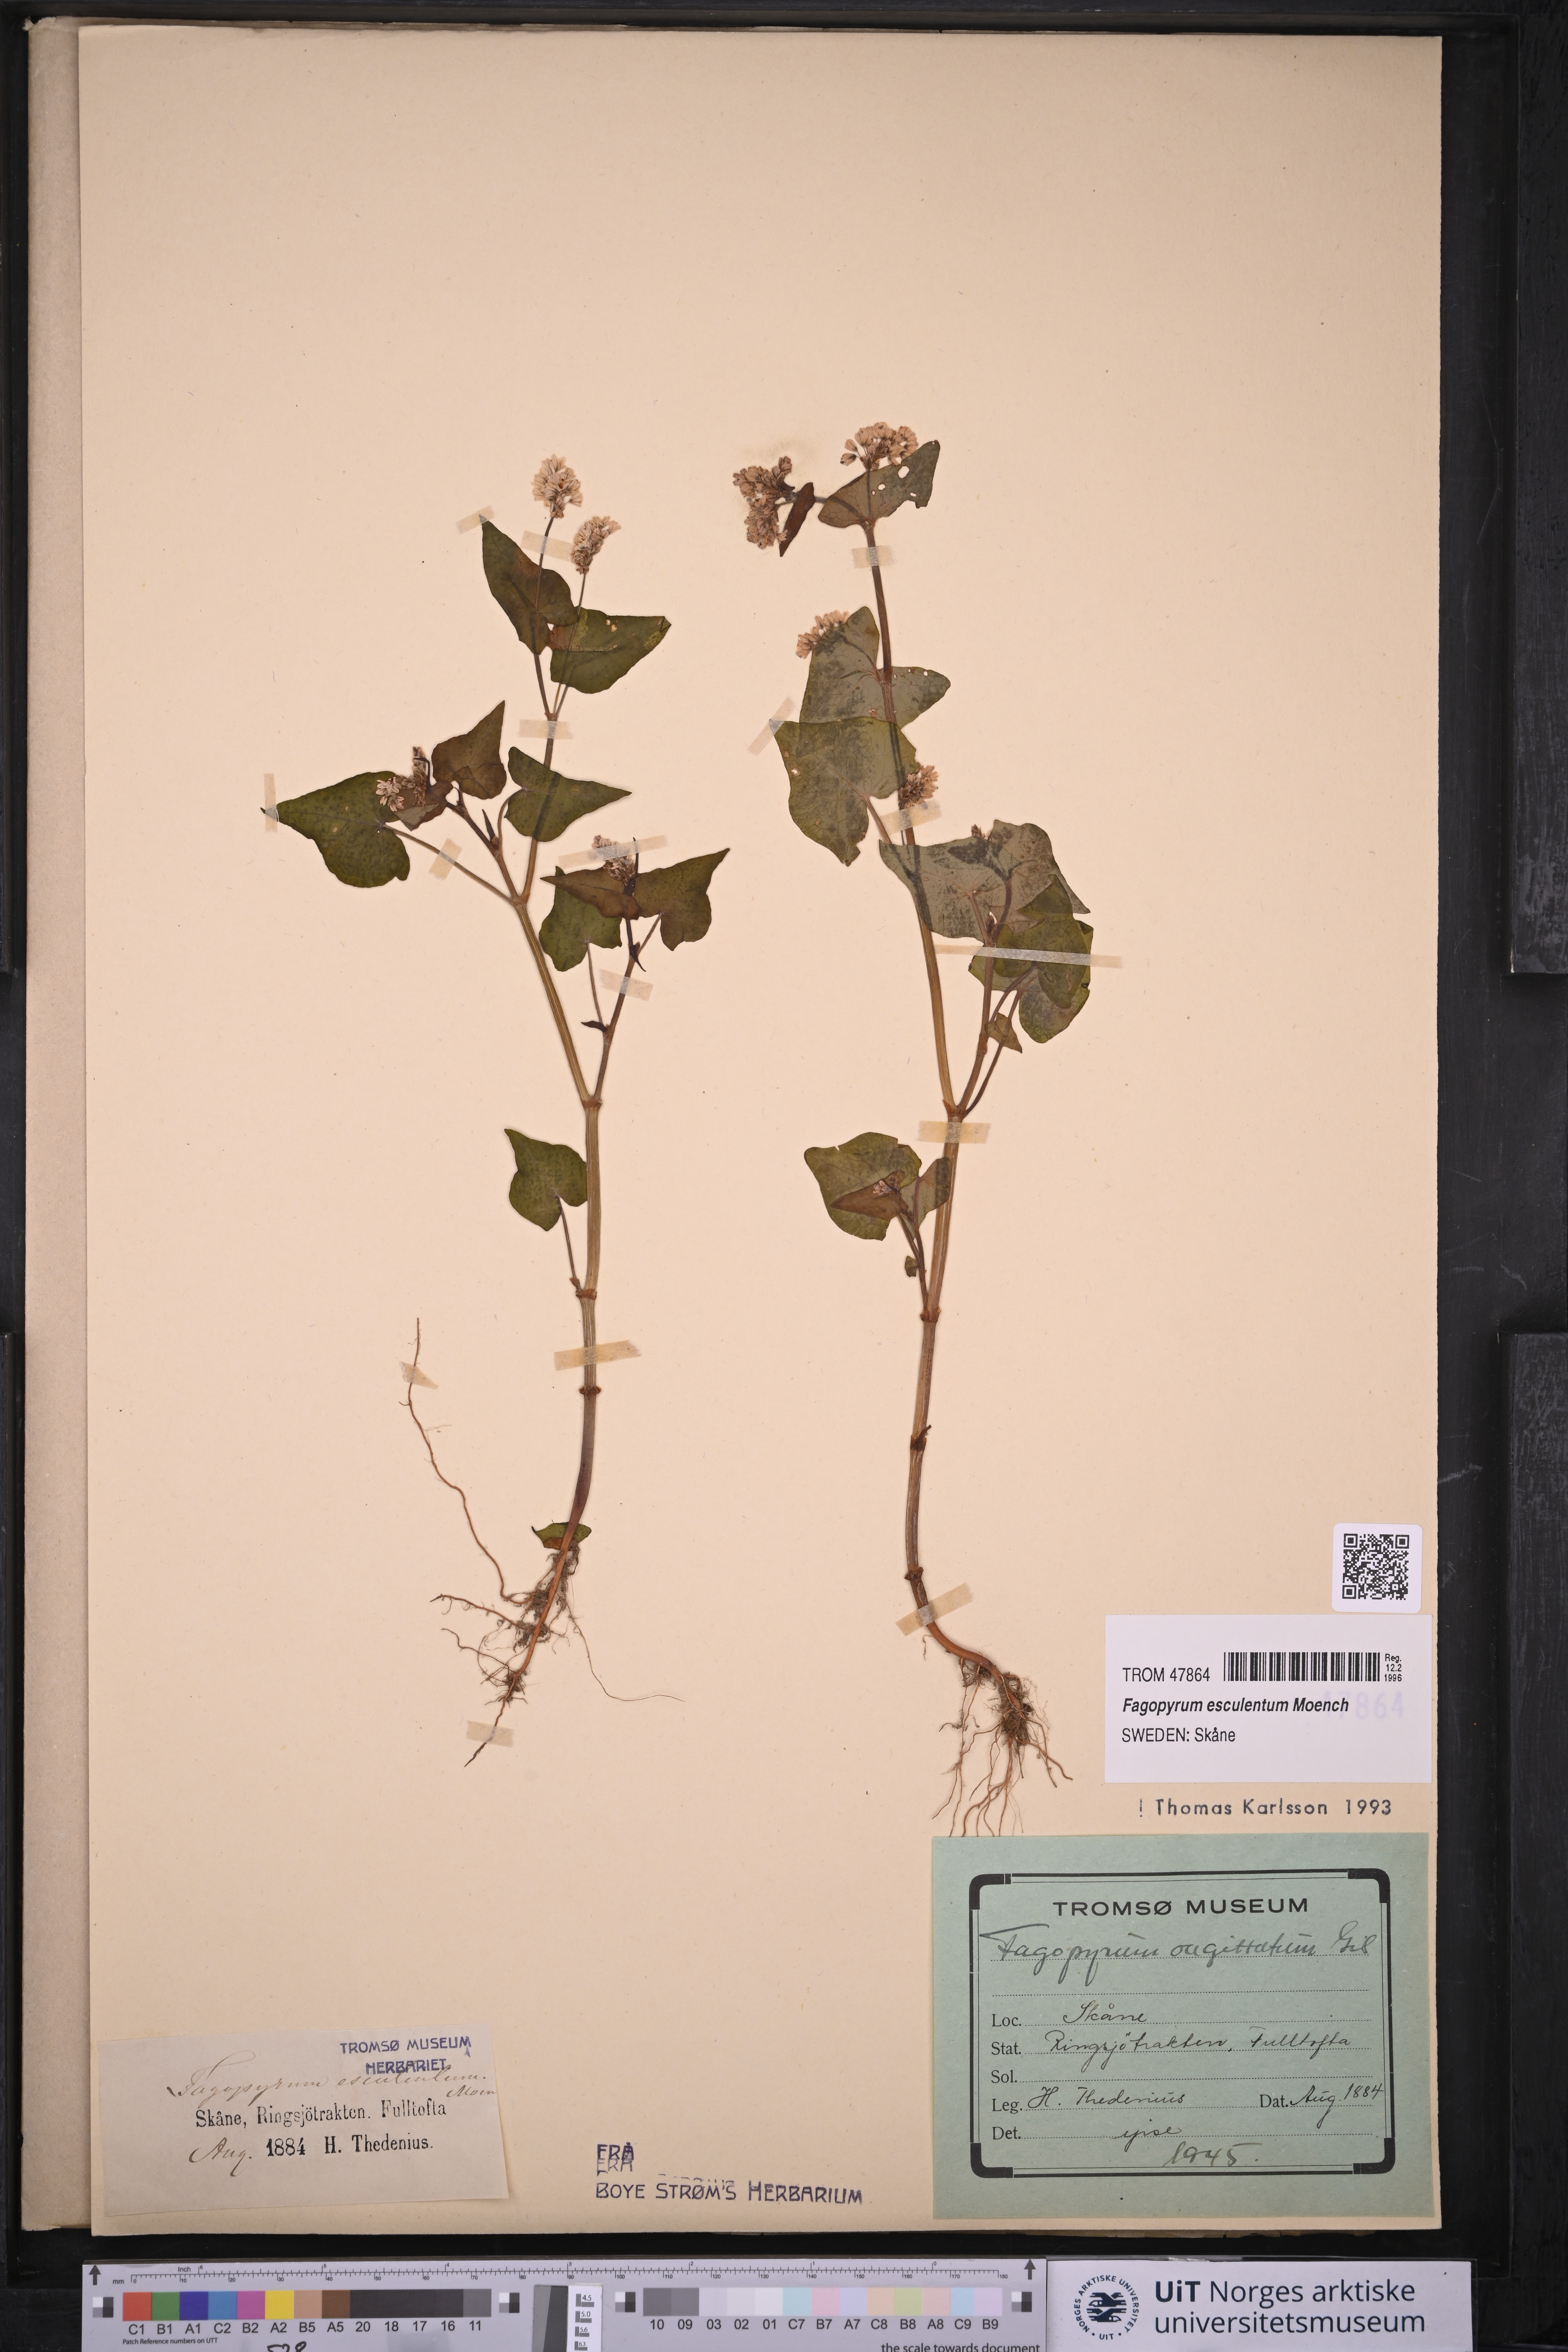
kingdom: Plantae
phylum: Tracheophyta
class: Magnoliopsida
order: Caryophyllales
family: Polygonaceae
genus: Fagopyrum
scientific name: Fagopyrum esculentum
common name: Buckwheat
